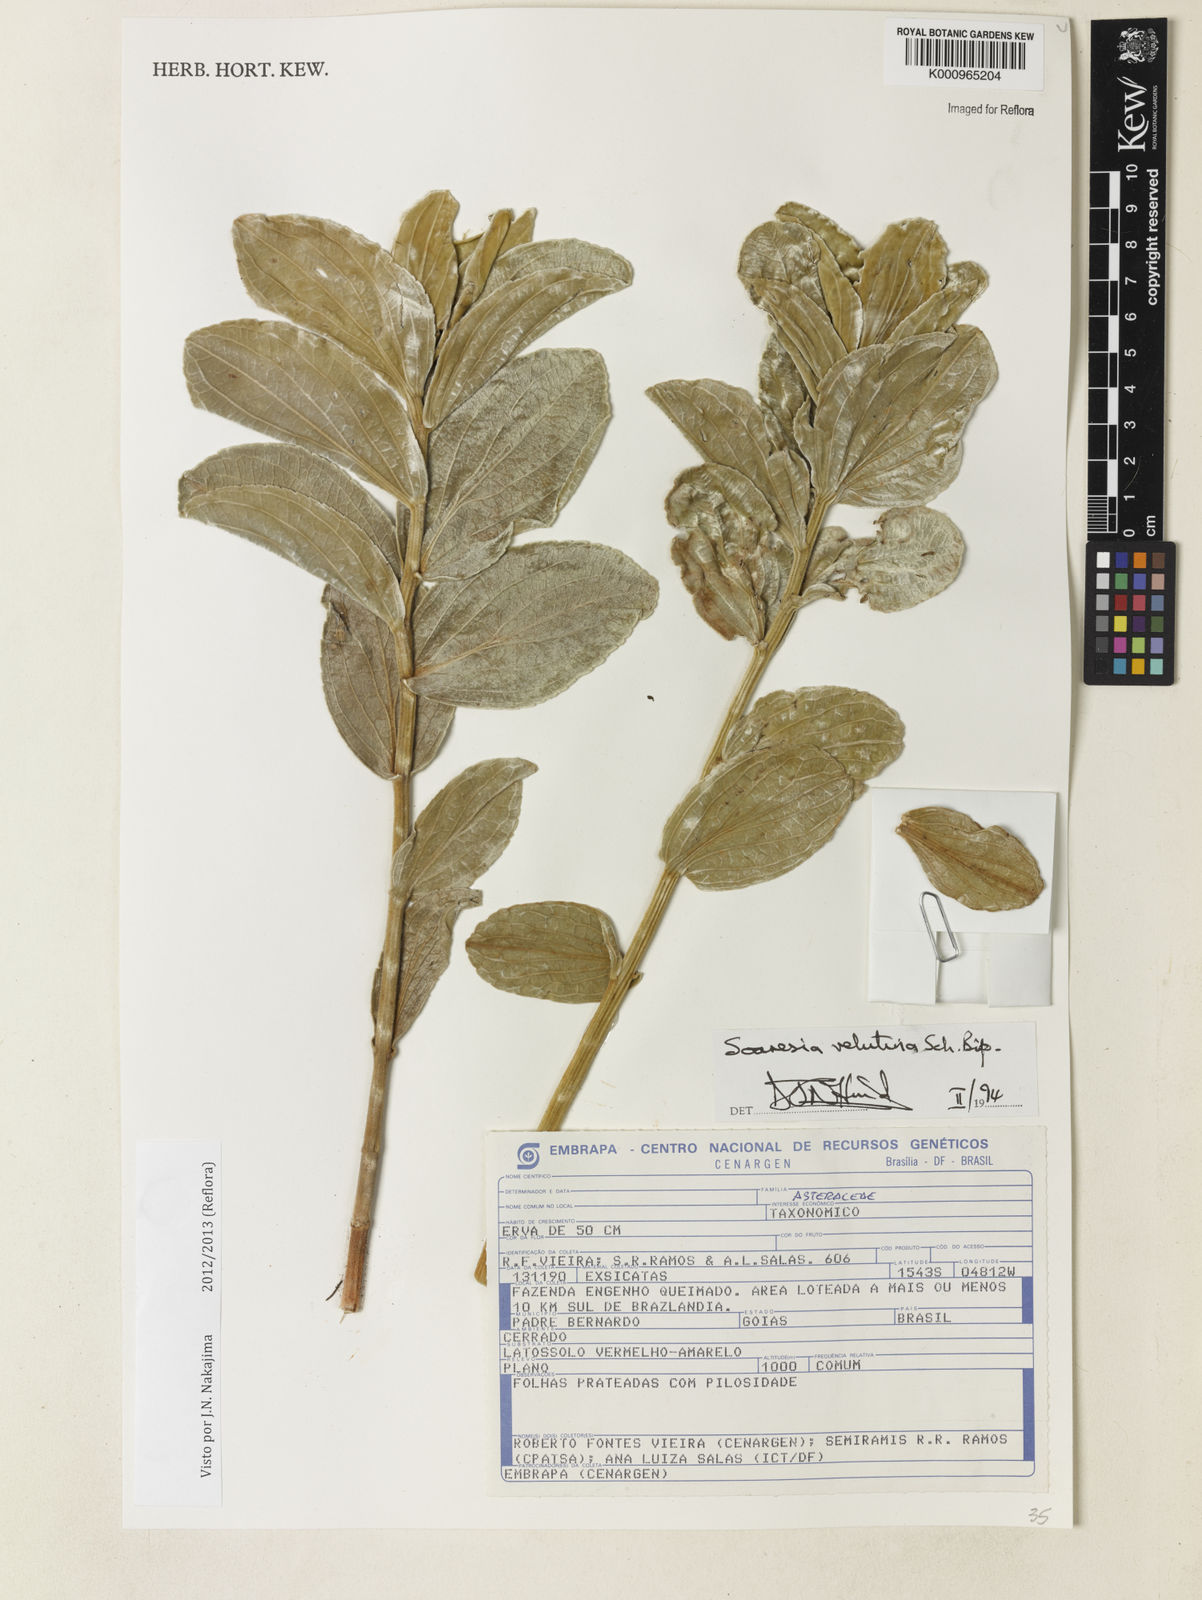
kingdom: Plantae
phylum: Tracheophyta
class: Magnoliopsida
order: Asterales
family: Asteraceae
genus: Soaresia
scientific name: Soaresia velutina
